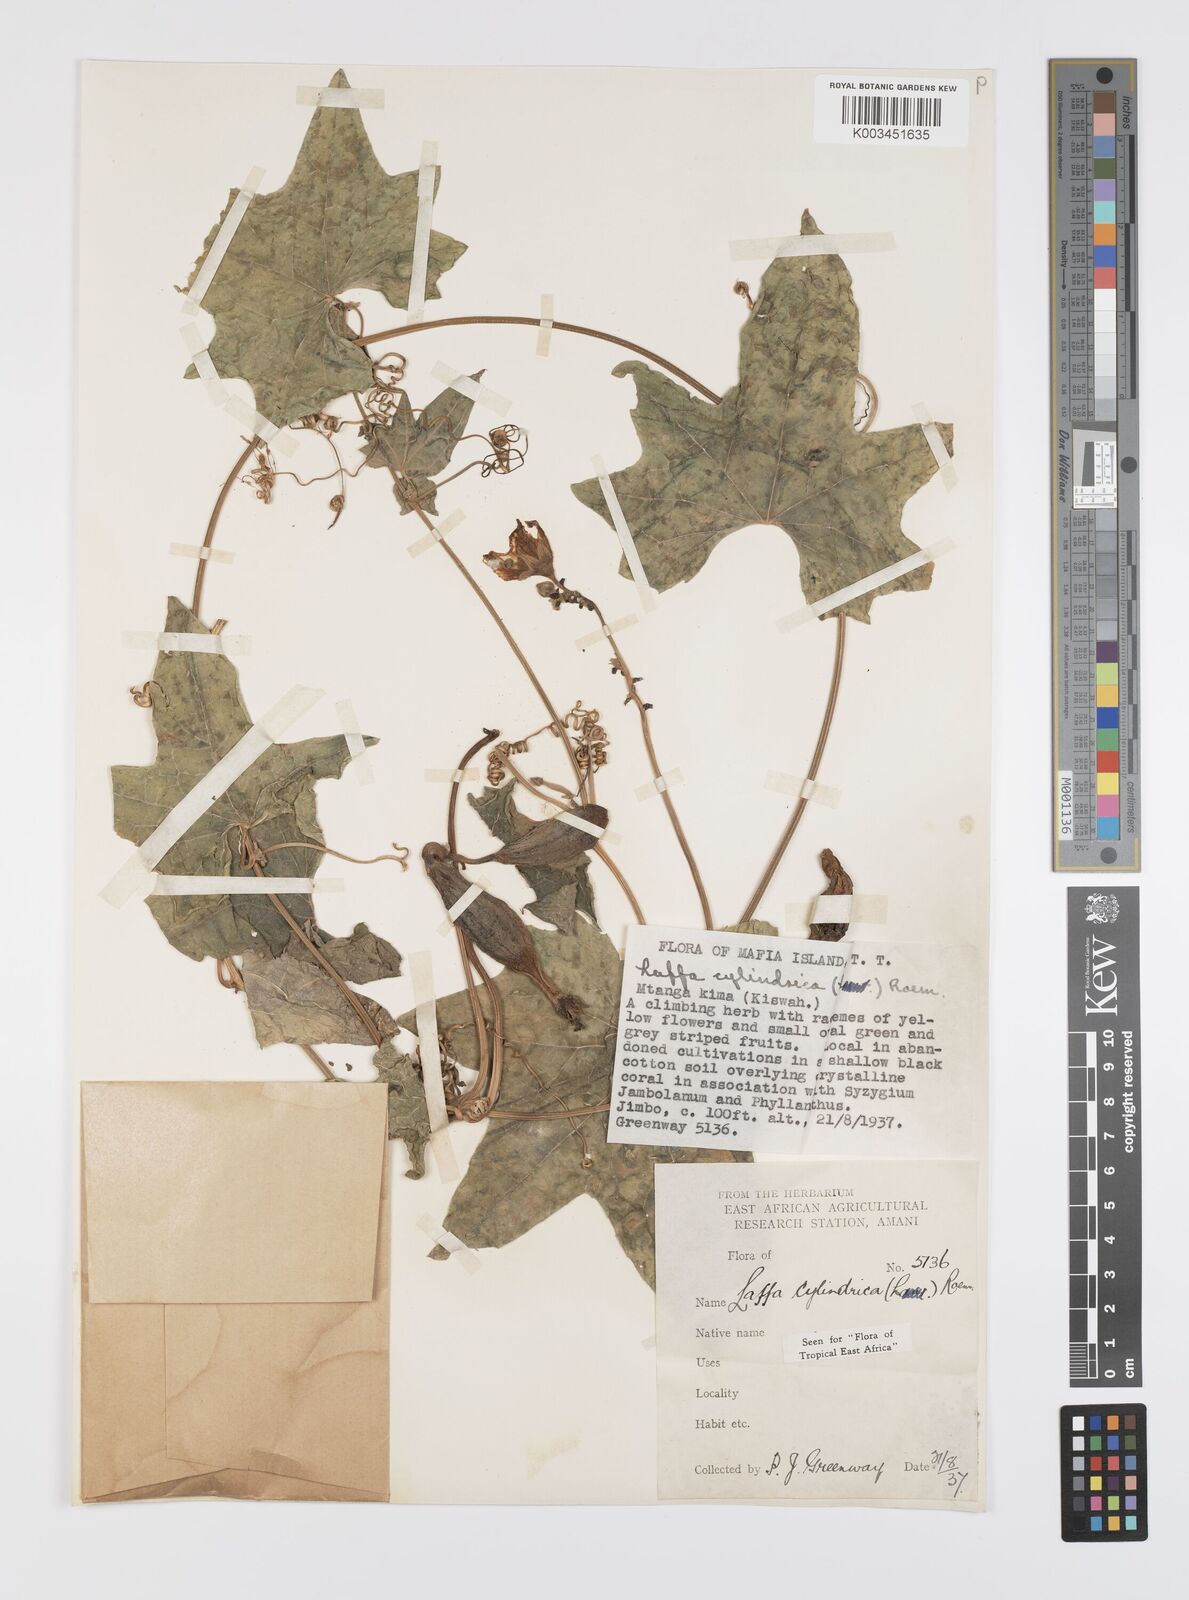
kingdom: Plantae
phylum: Tracheophyta
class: Magnoliopsida
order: Cucurbitales
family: Cucurbitaceae
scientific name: Cucurbitaceae
